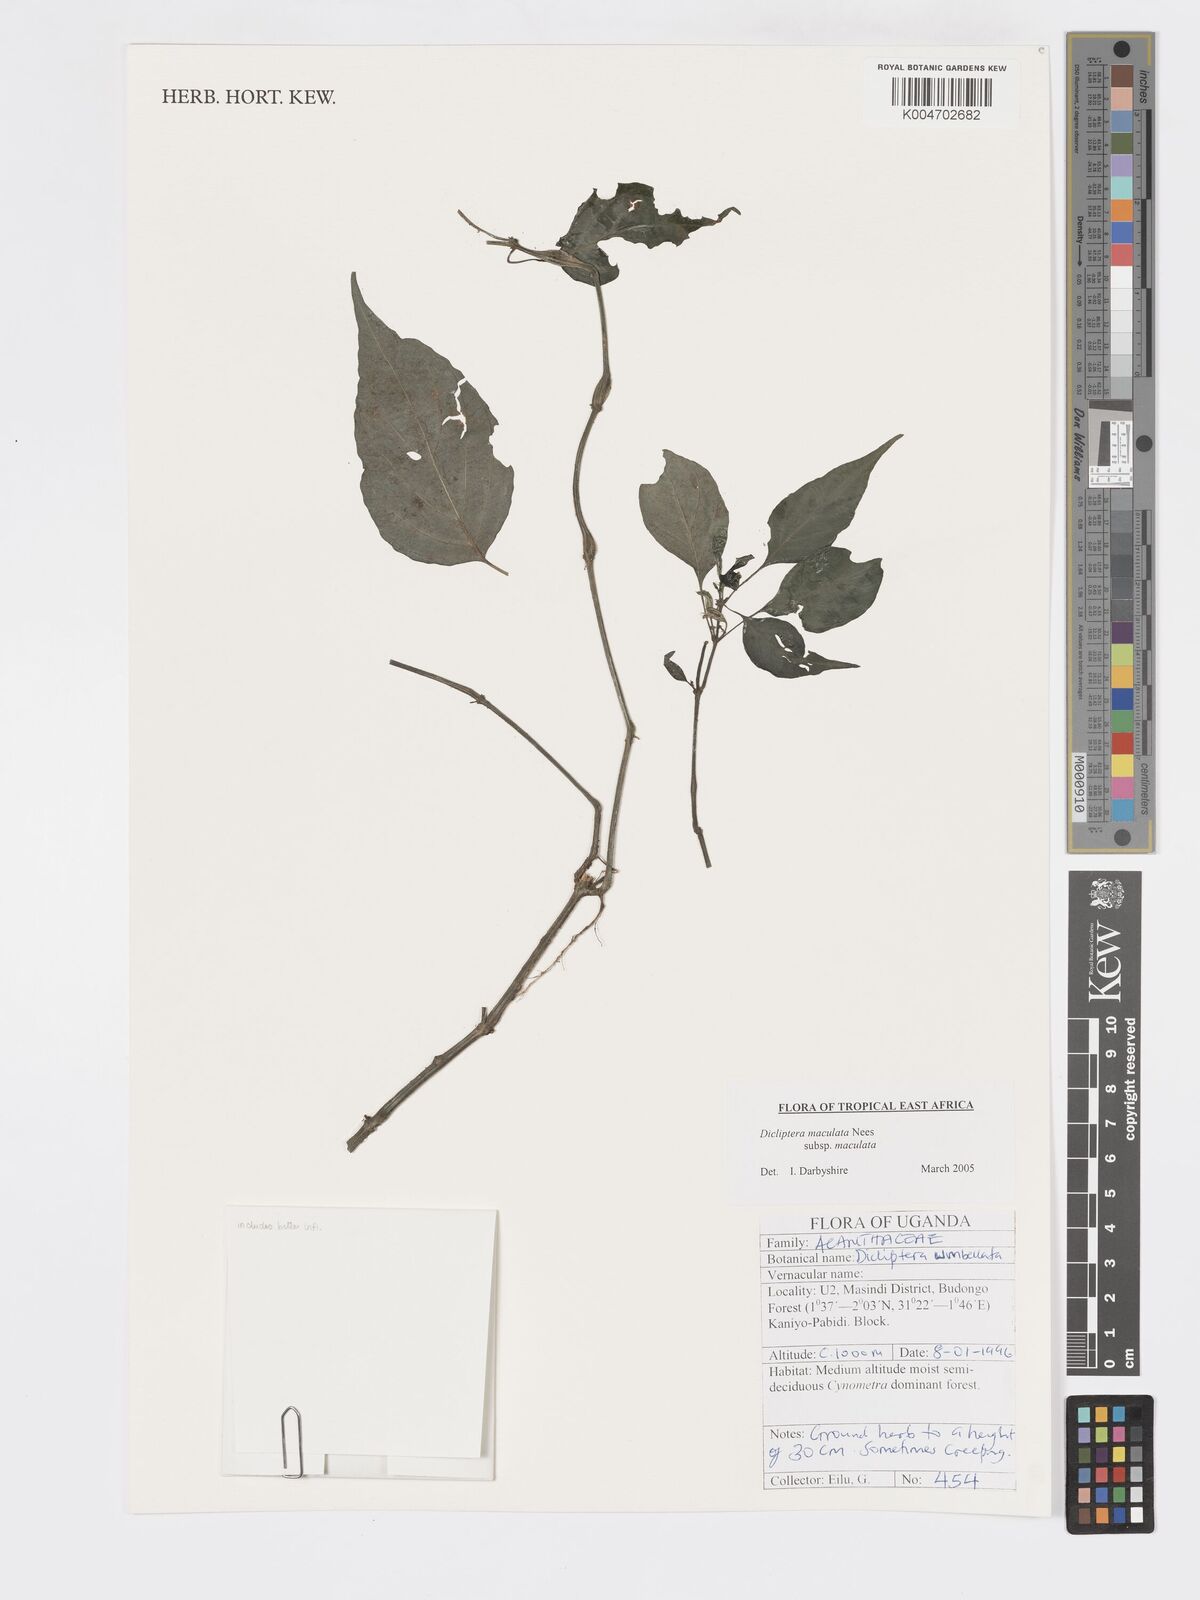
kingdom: Plantae
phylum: Tracheophyta
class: Magnoliopsida
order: Lamiales
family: Acanthaceae
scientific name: Acanthaceae
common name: Acanthaceae
